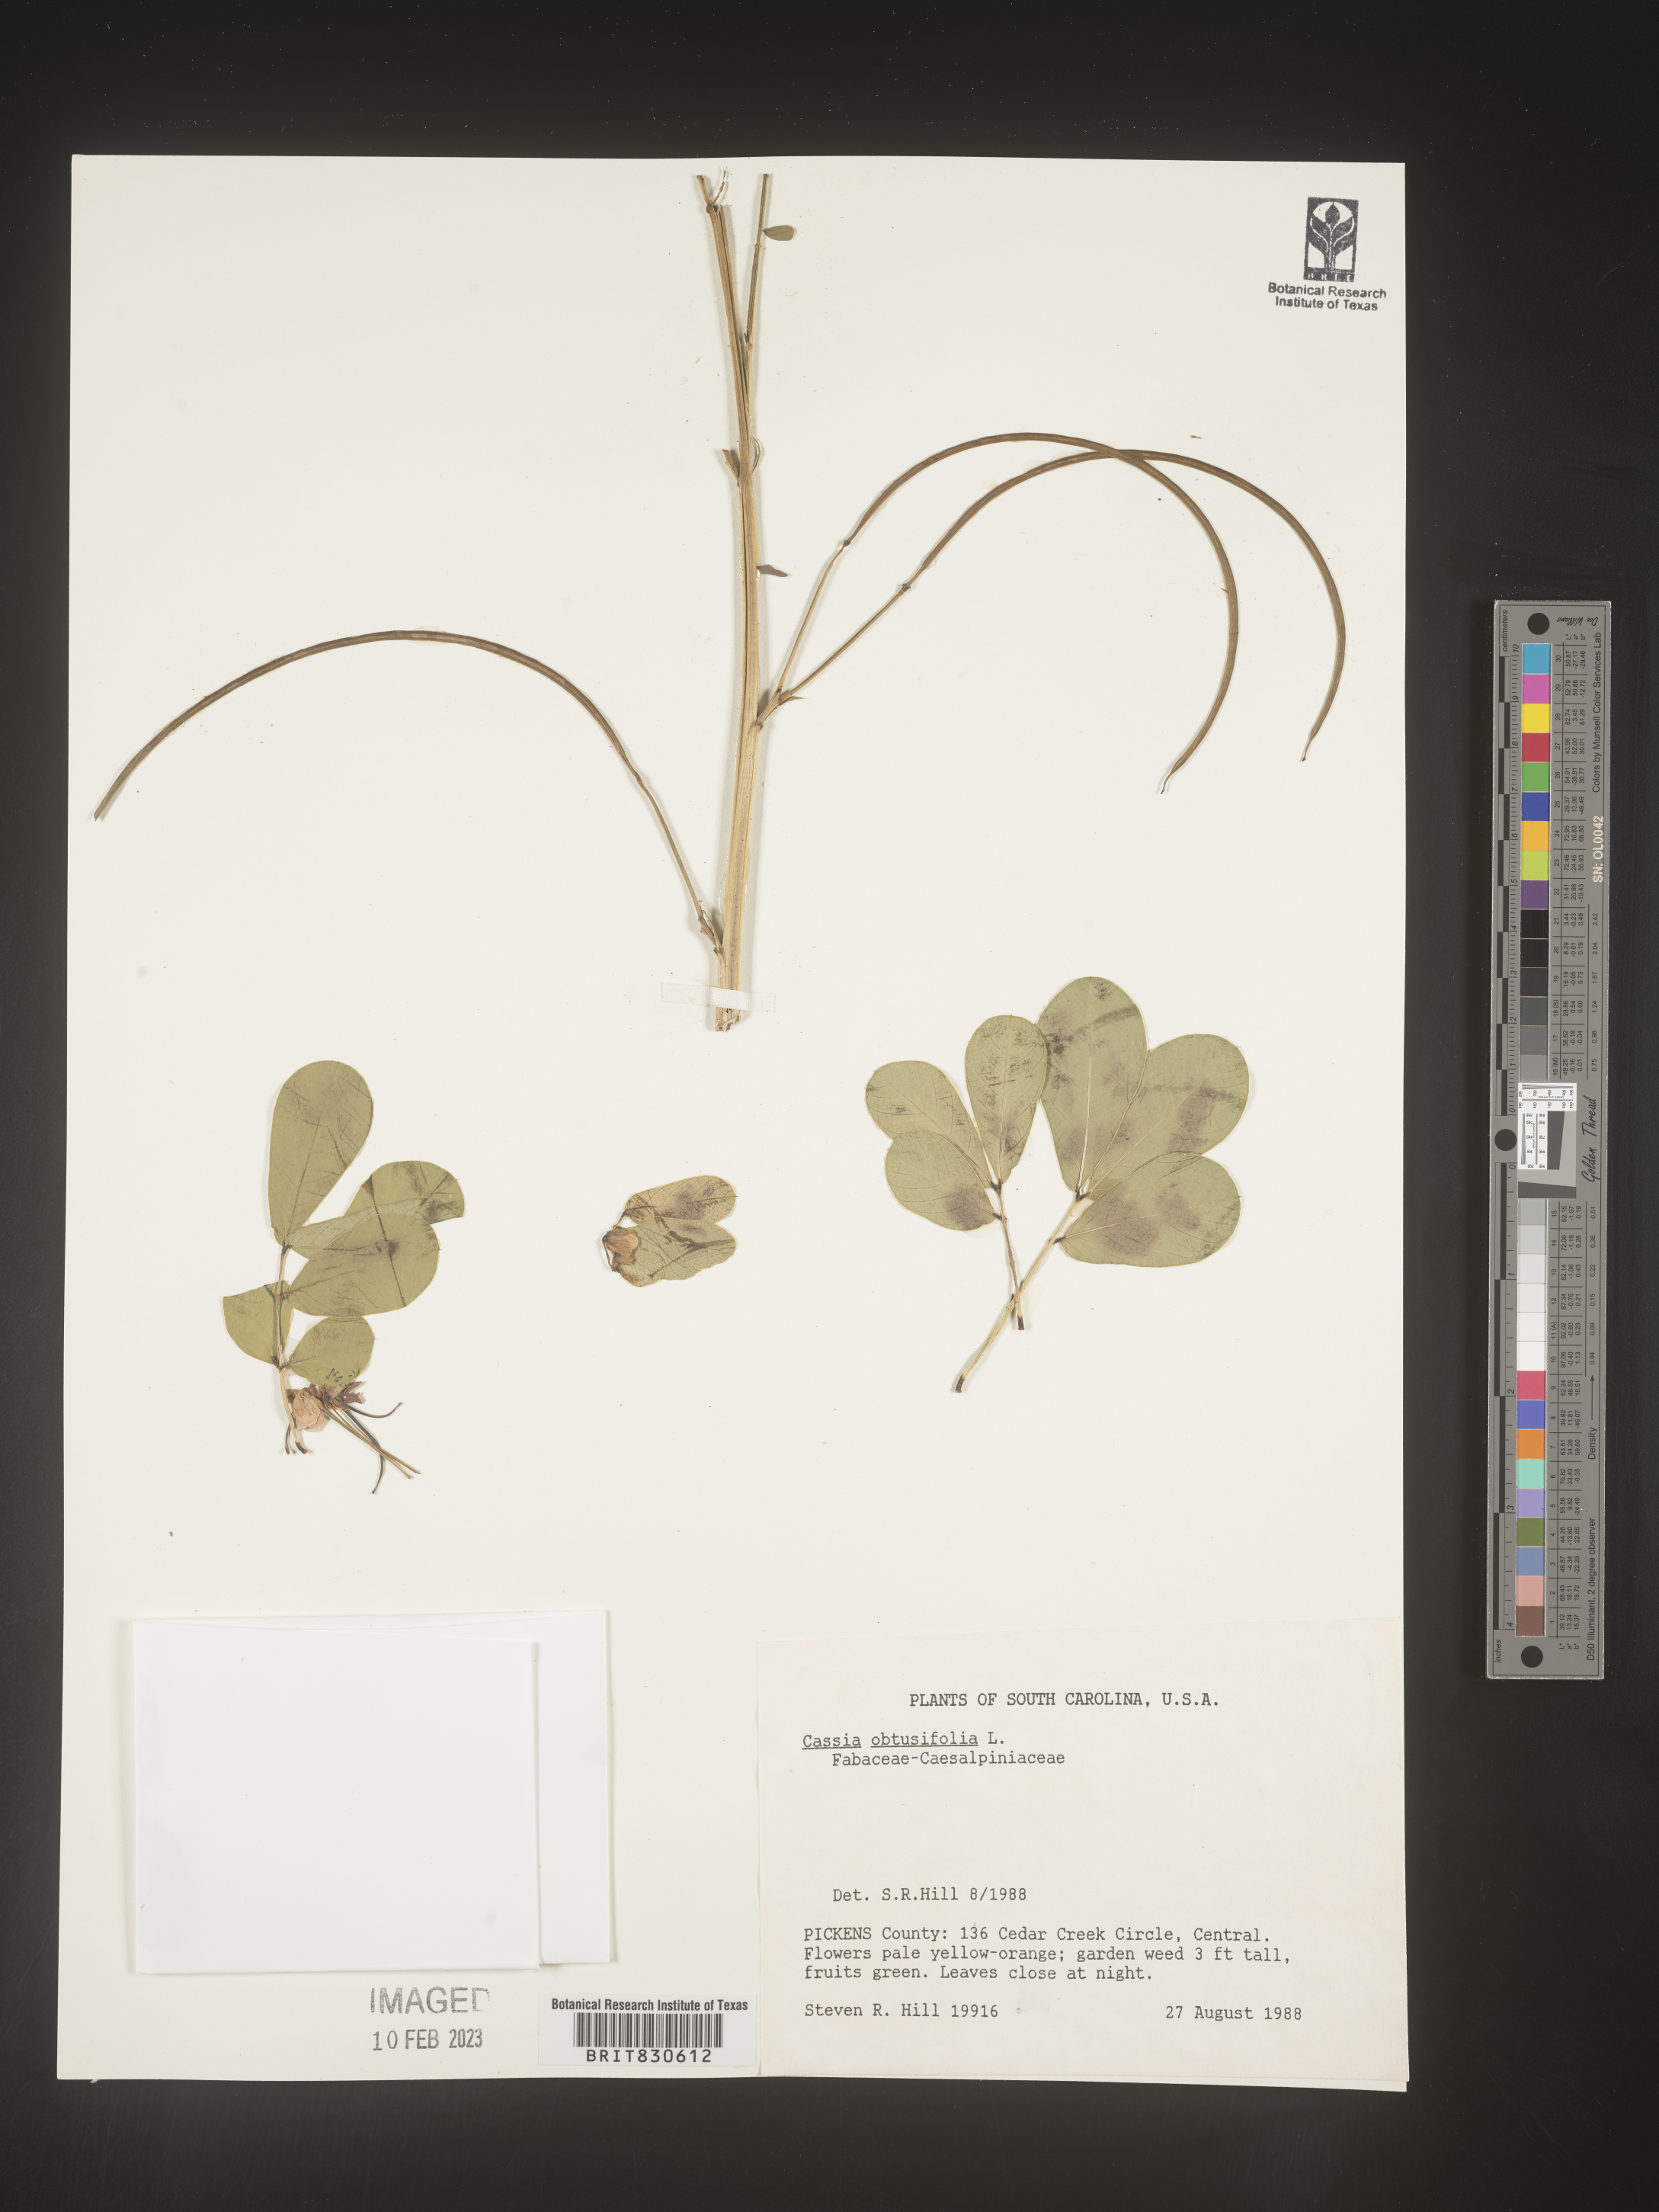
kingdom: Plantae
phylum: Tracheophyta
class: Magnoliopsida
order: Fabales
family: Fabaceae
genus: Senna
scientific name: Senna obtusifolia
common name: Java-bean
